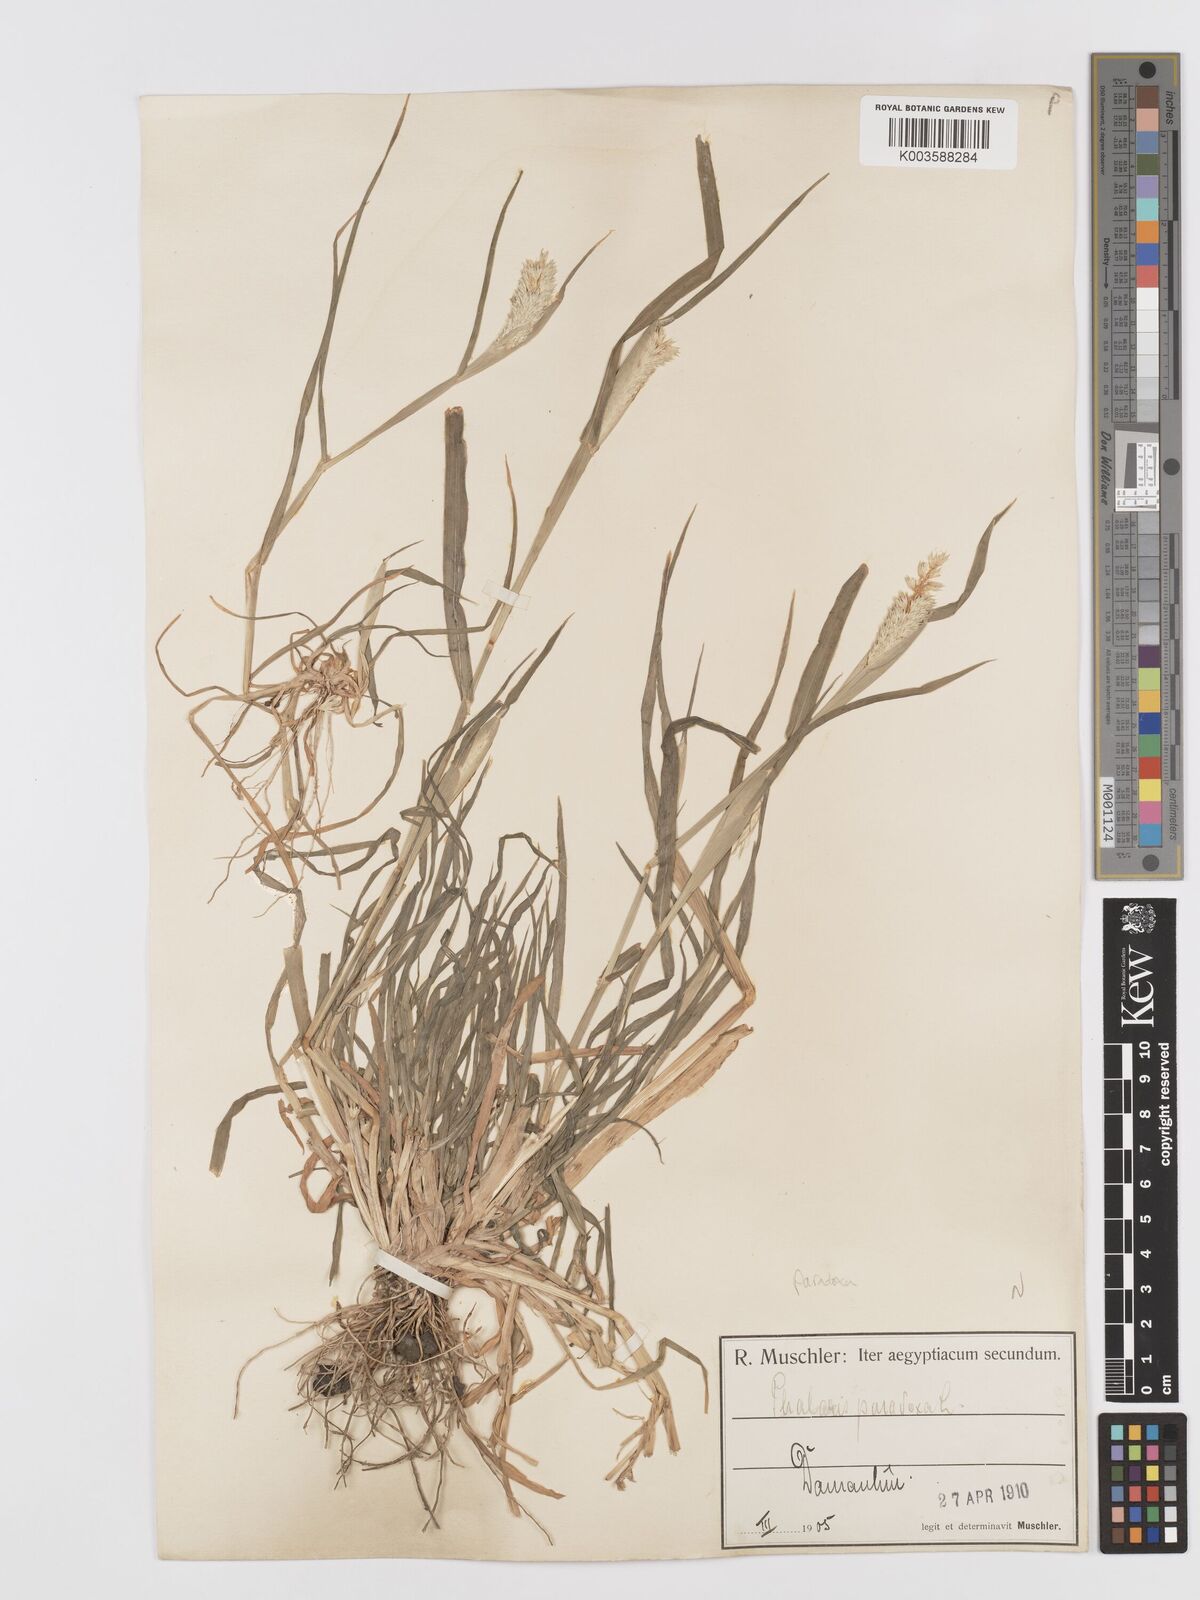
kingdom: Plantae
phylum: Tracheophyta
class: Liliopsida
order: Poales
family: Poaceae
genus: Phalaris
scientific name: Phalaris paradoxa
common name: Awned canary-grass
